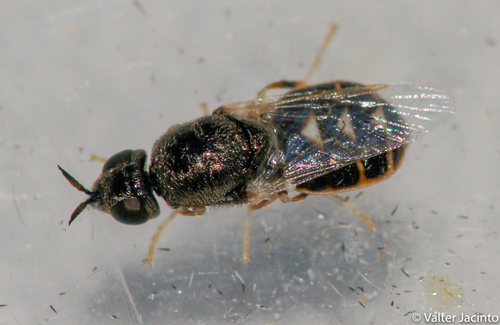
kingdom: Animalia
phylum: Arthropoda
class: Insecta
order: Diptera
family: Stratiomyidae
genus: Nemotelus
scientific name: Nemotelus cingulatus
